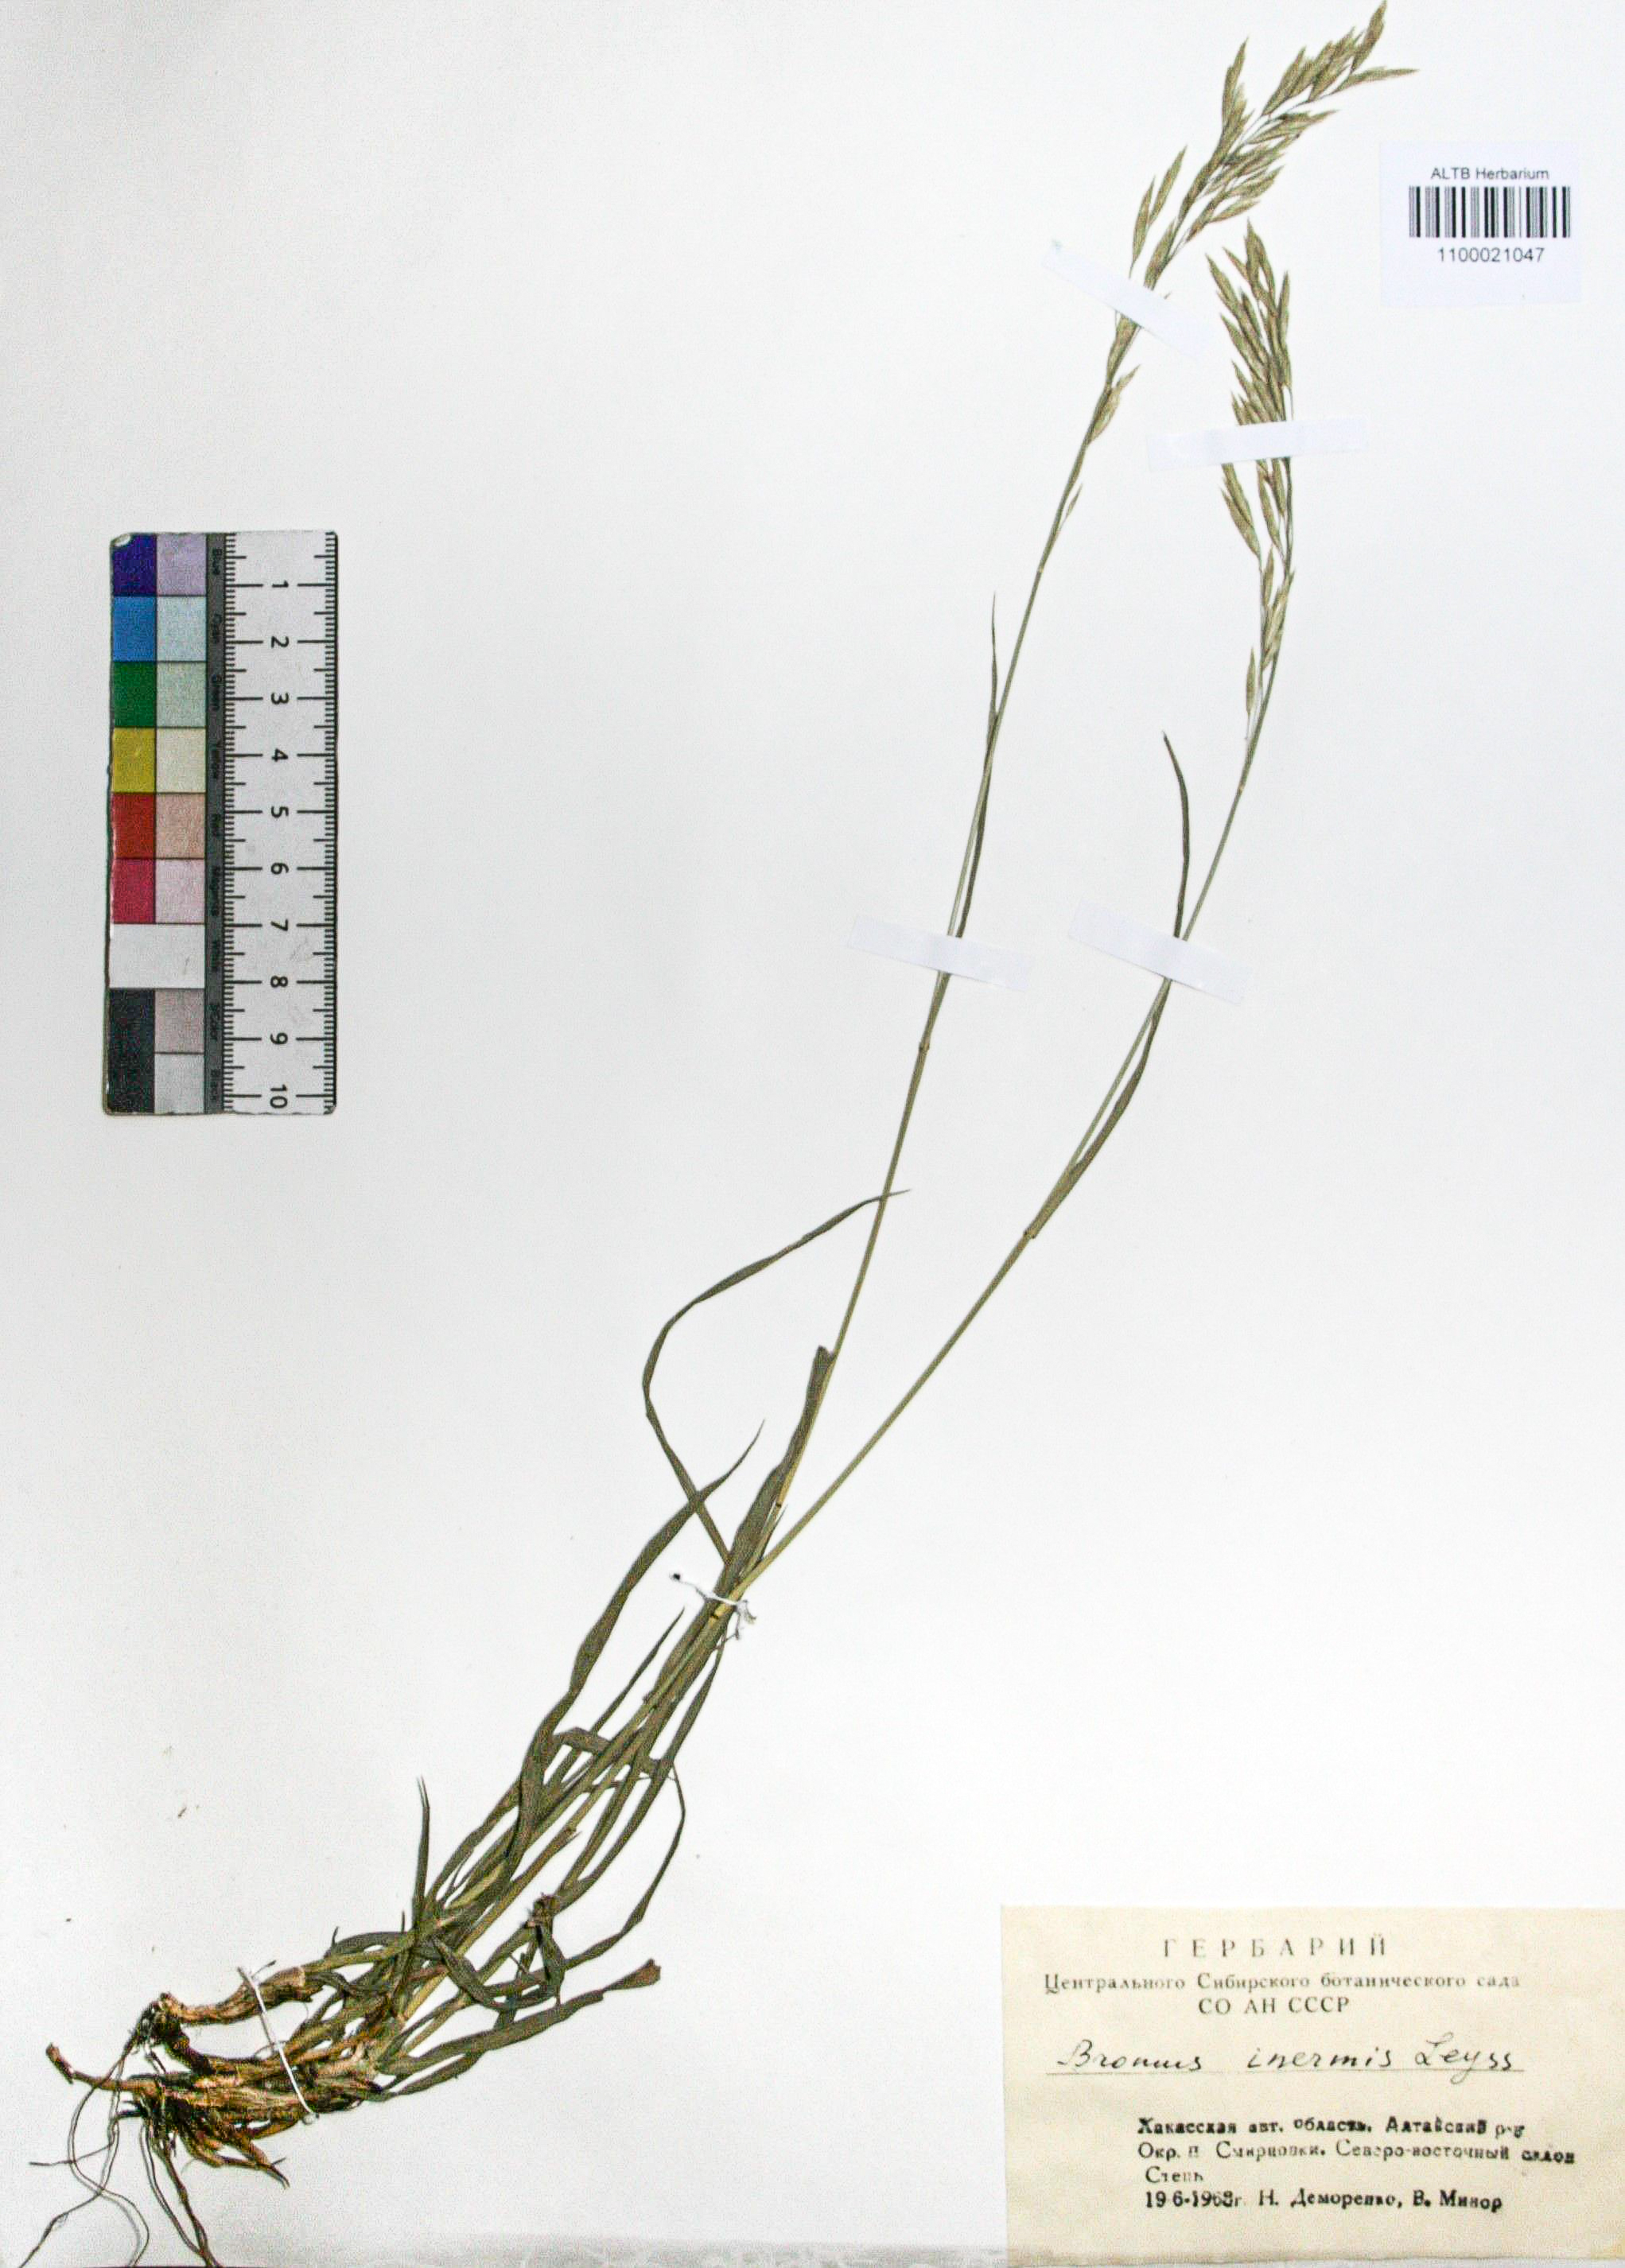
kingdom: Plantae
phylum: Tracheophyta
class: Liliopsida
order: Poales
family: Poaceae
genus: Bromus
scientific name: Bromus inermis
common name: Smooth brome
